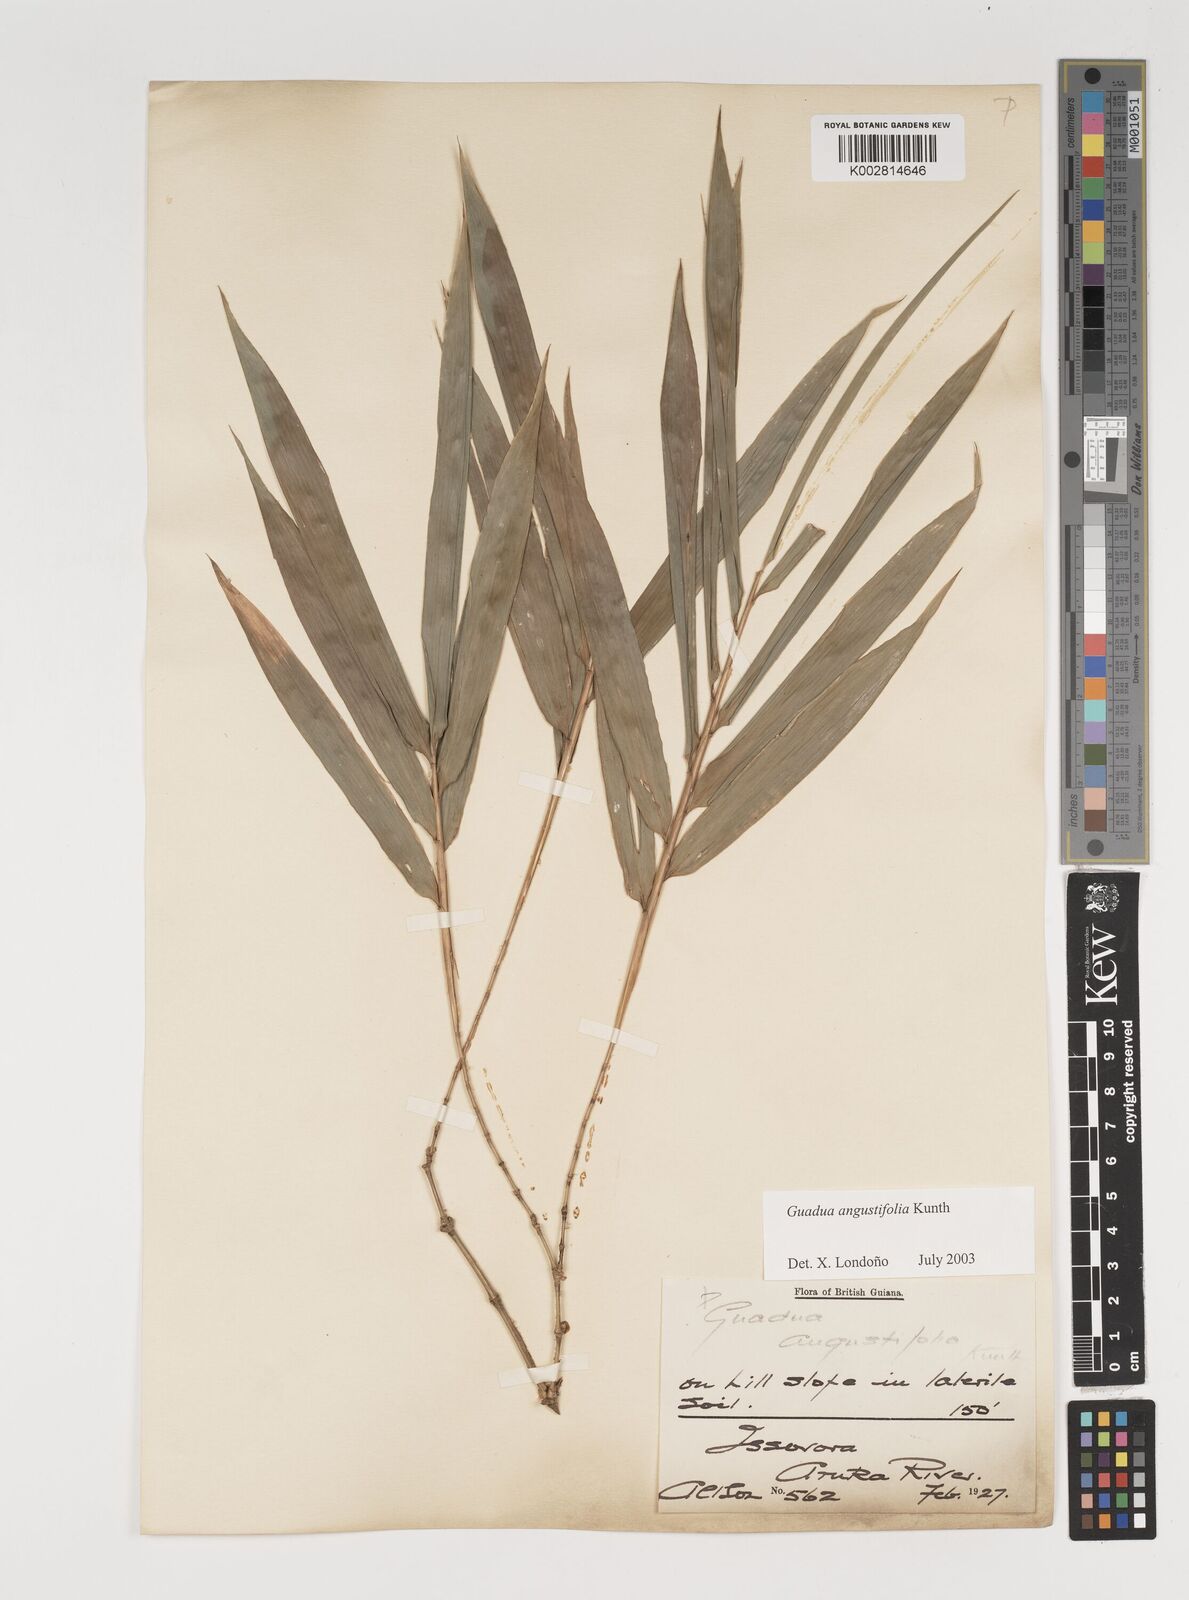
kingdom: Plantae
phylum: Tracheophyta
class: Liliopsida
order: Poales
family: Poaceae
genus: Guadua
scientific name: Guadua angustifolia
